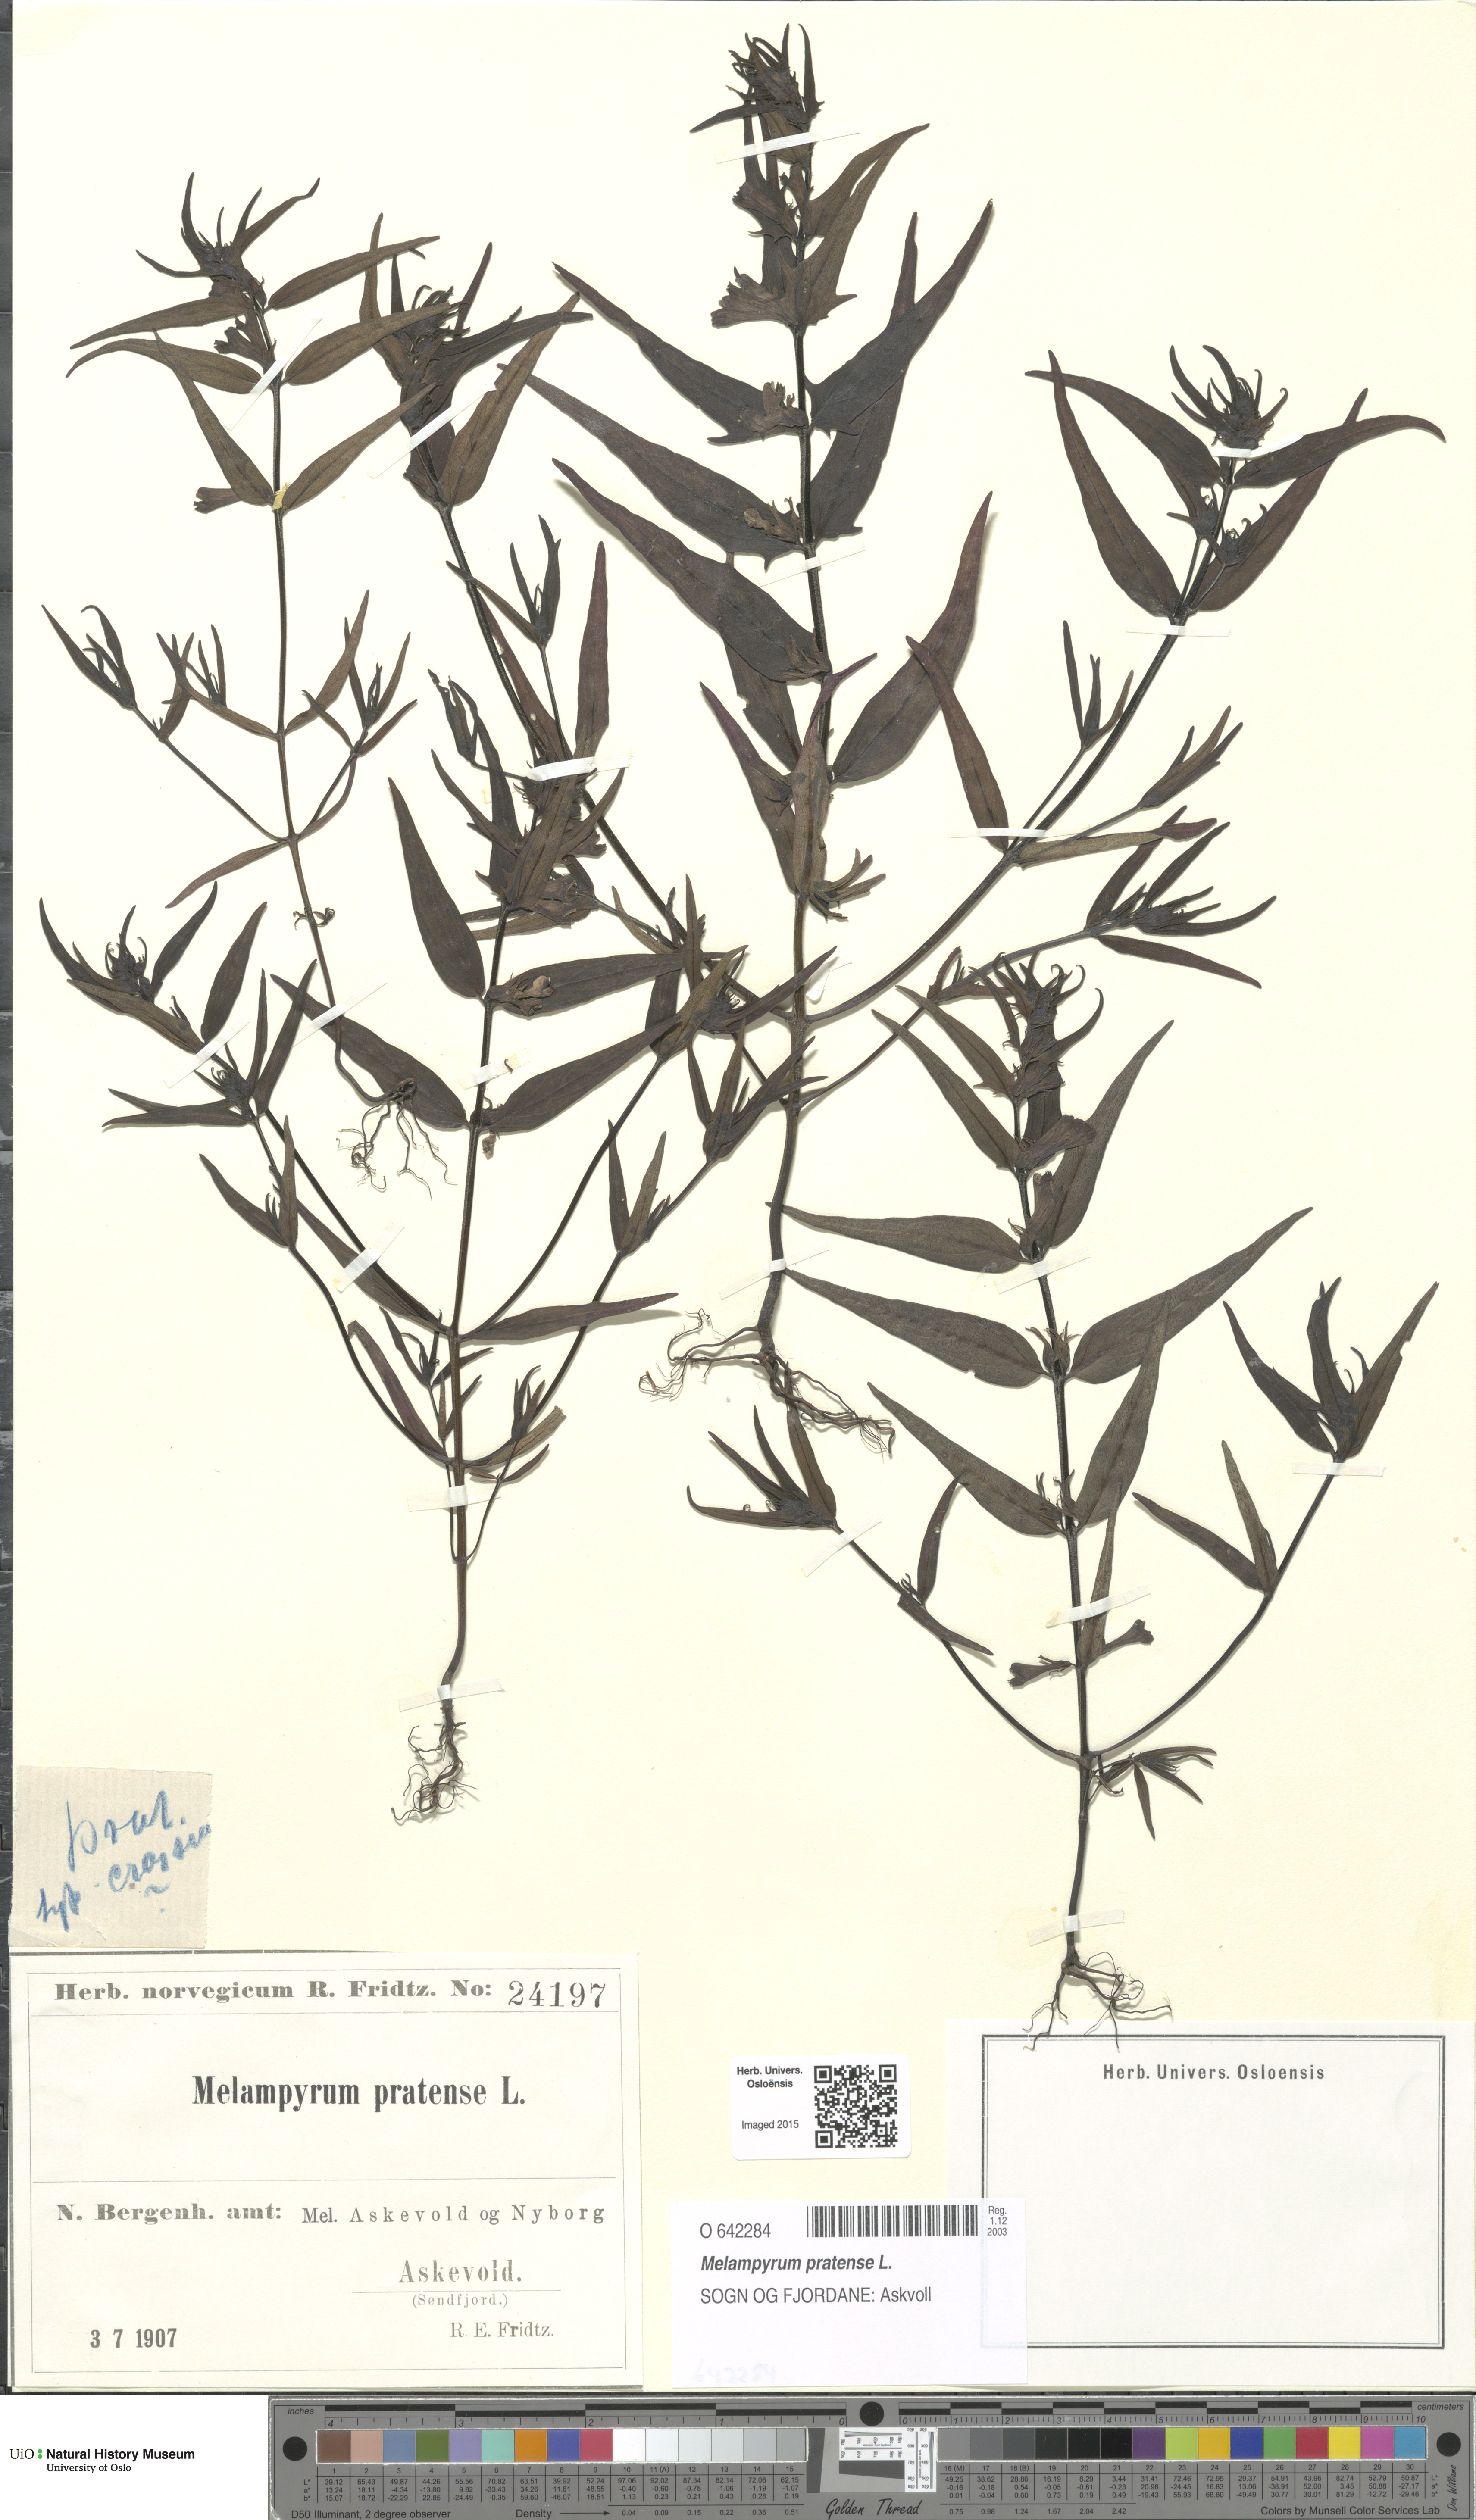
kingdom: Plantae
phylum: Tracheophyta
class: Magnoliopsida
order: Lamiales
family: Orobanchaceae
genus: Melampyrum
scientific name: Melampyrum pratense
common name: Common cow-wheat
